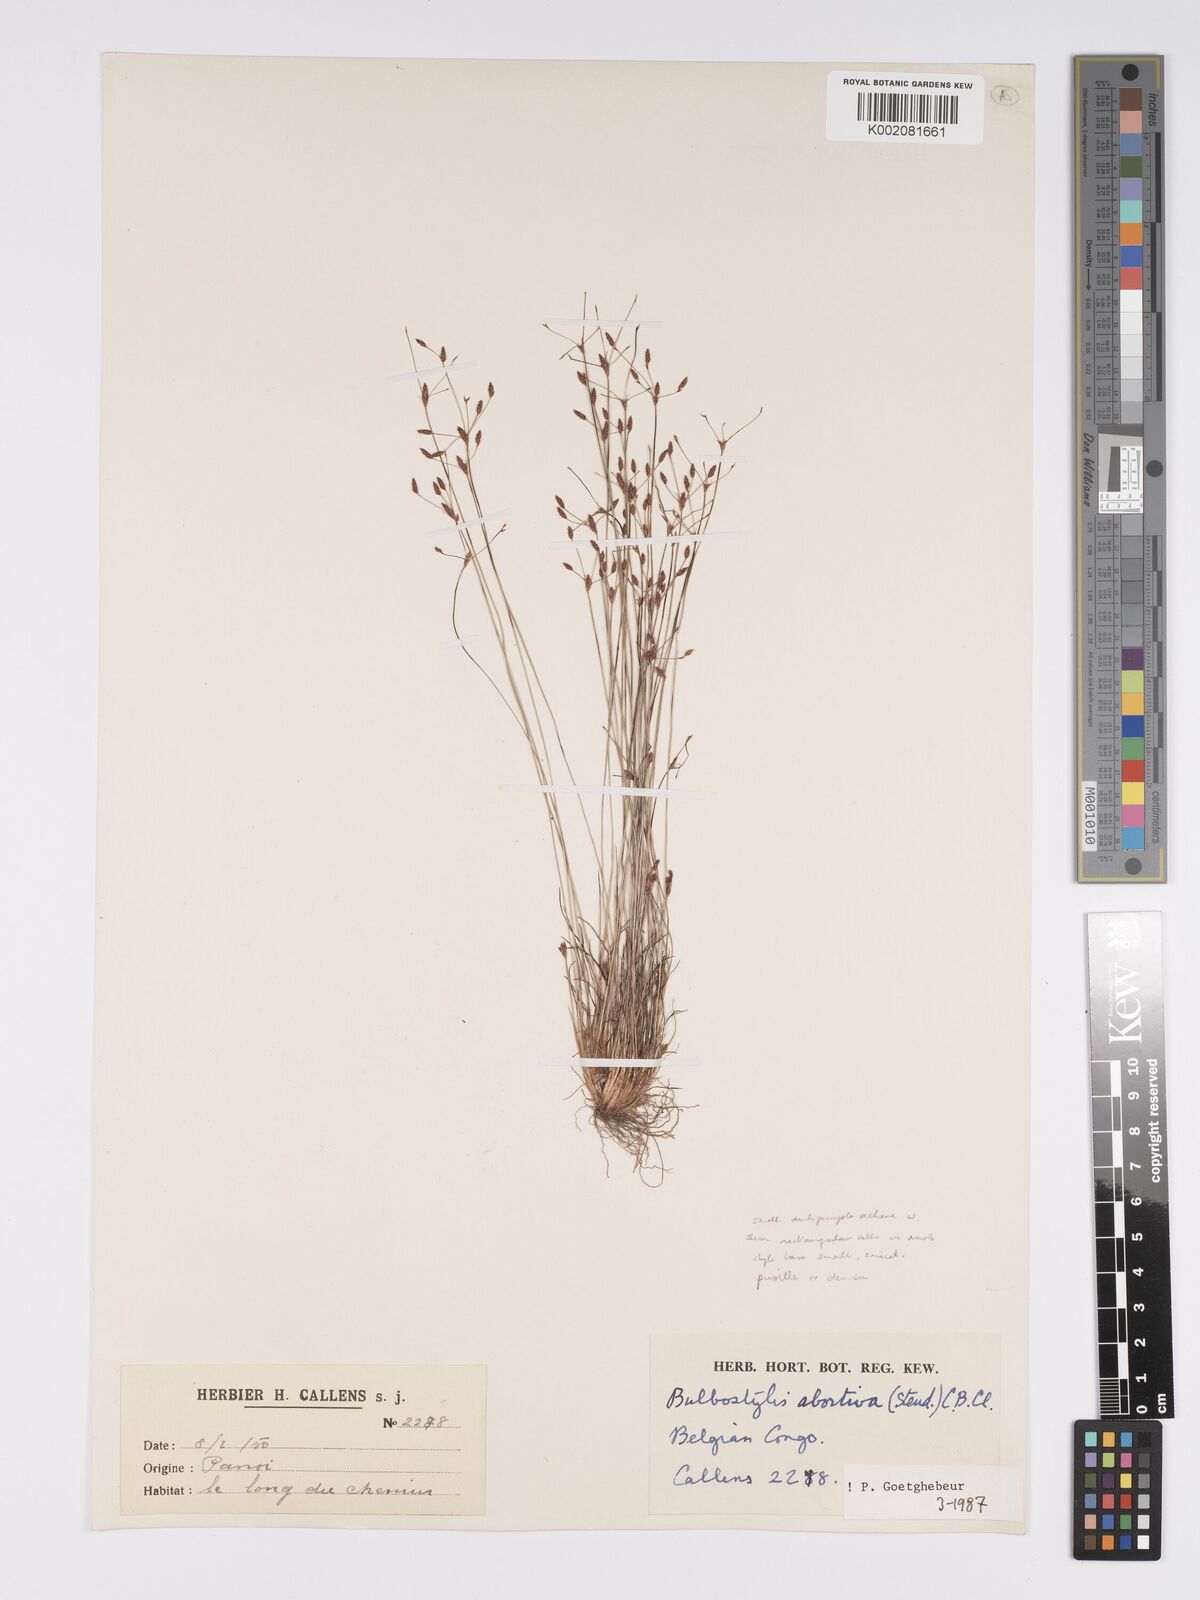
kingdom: Plantae
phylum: Tracheophyta
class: Liliopsida
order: Poales
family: Cyperaceae
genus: Bulbostylis
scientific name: Bulbostylis abortiva
